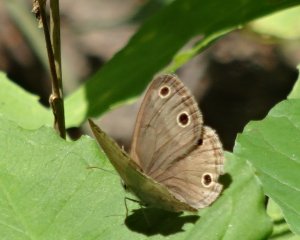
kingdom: Animalia
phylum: Arthropoda
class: Insecta
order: Lepidoptera
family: Nymphalidae
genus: Euptychia
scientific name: Euptychia cymela
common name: Little Wood Satyr
